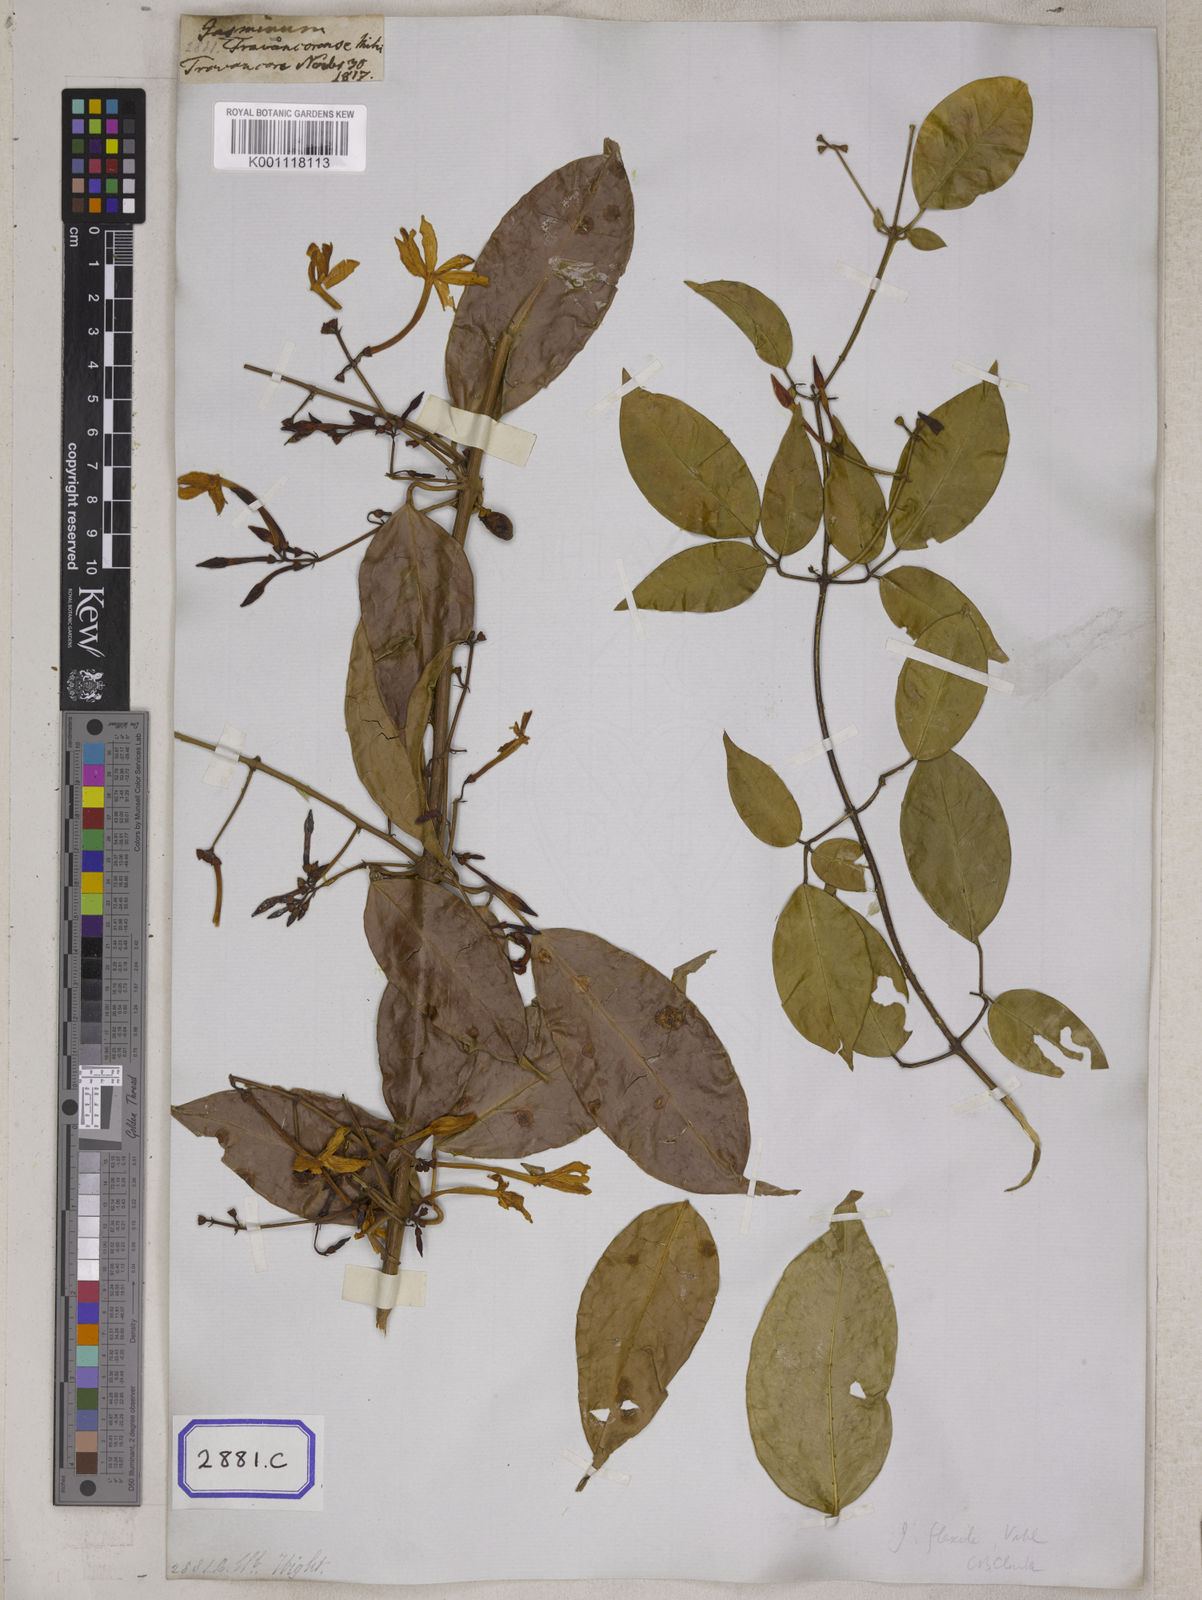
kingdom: Plantae
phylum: Tracheophyta
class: Magnoliopsida
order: Lamiales
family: Oleaceae
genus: Jasminum
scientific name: Jasminum flexile
